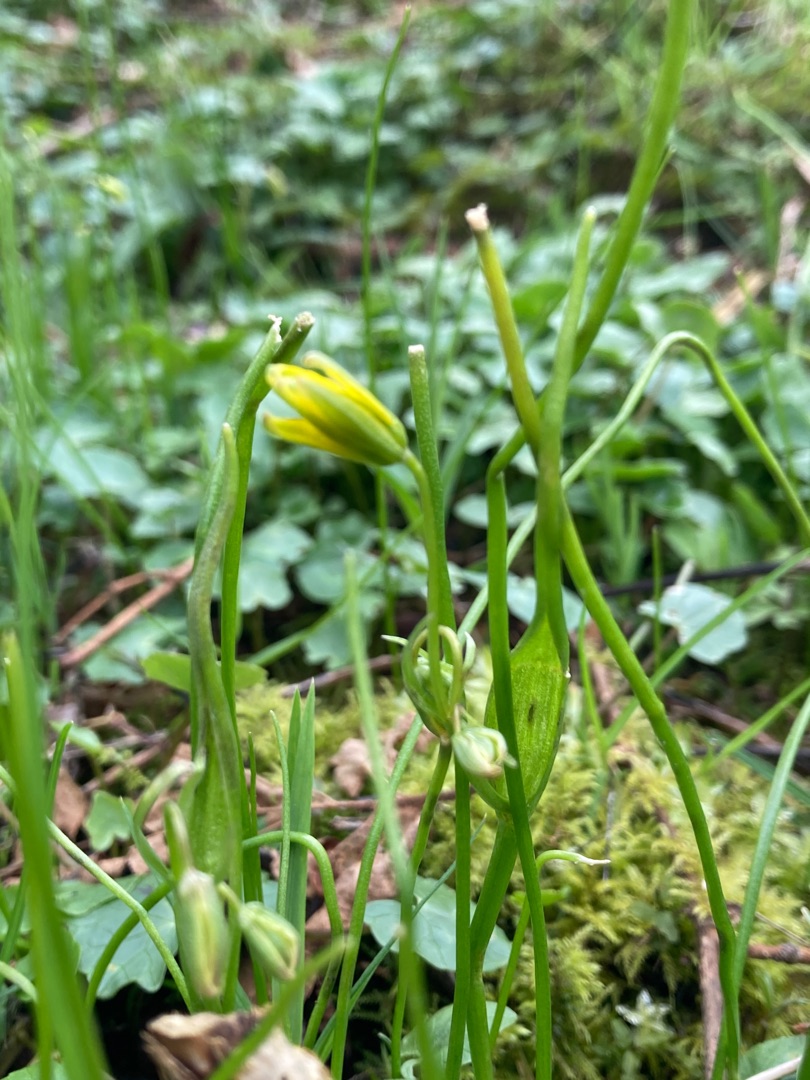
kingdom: Plantae
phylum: Tracheophyta
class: Liliopsida
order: Liliales
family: Liliaceae
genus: Gagea
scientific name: Gagea spathacea
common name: Hylster-guldstjerne
